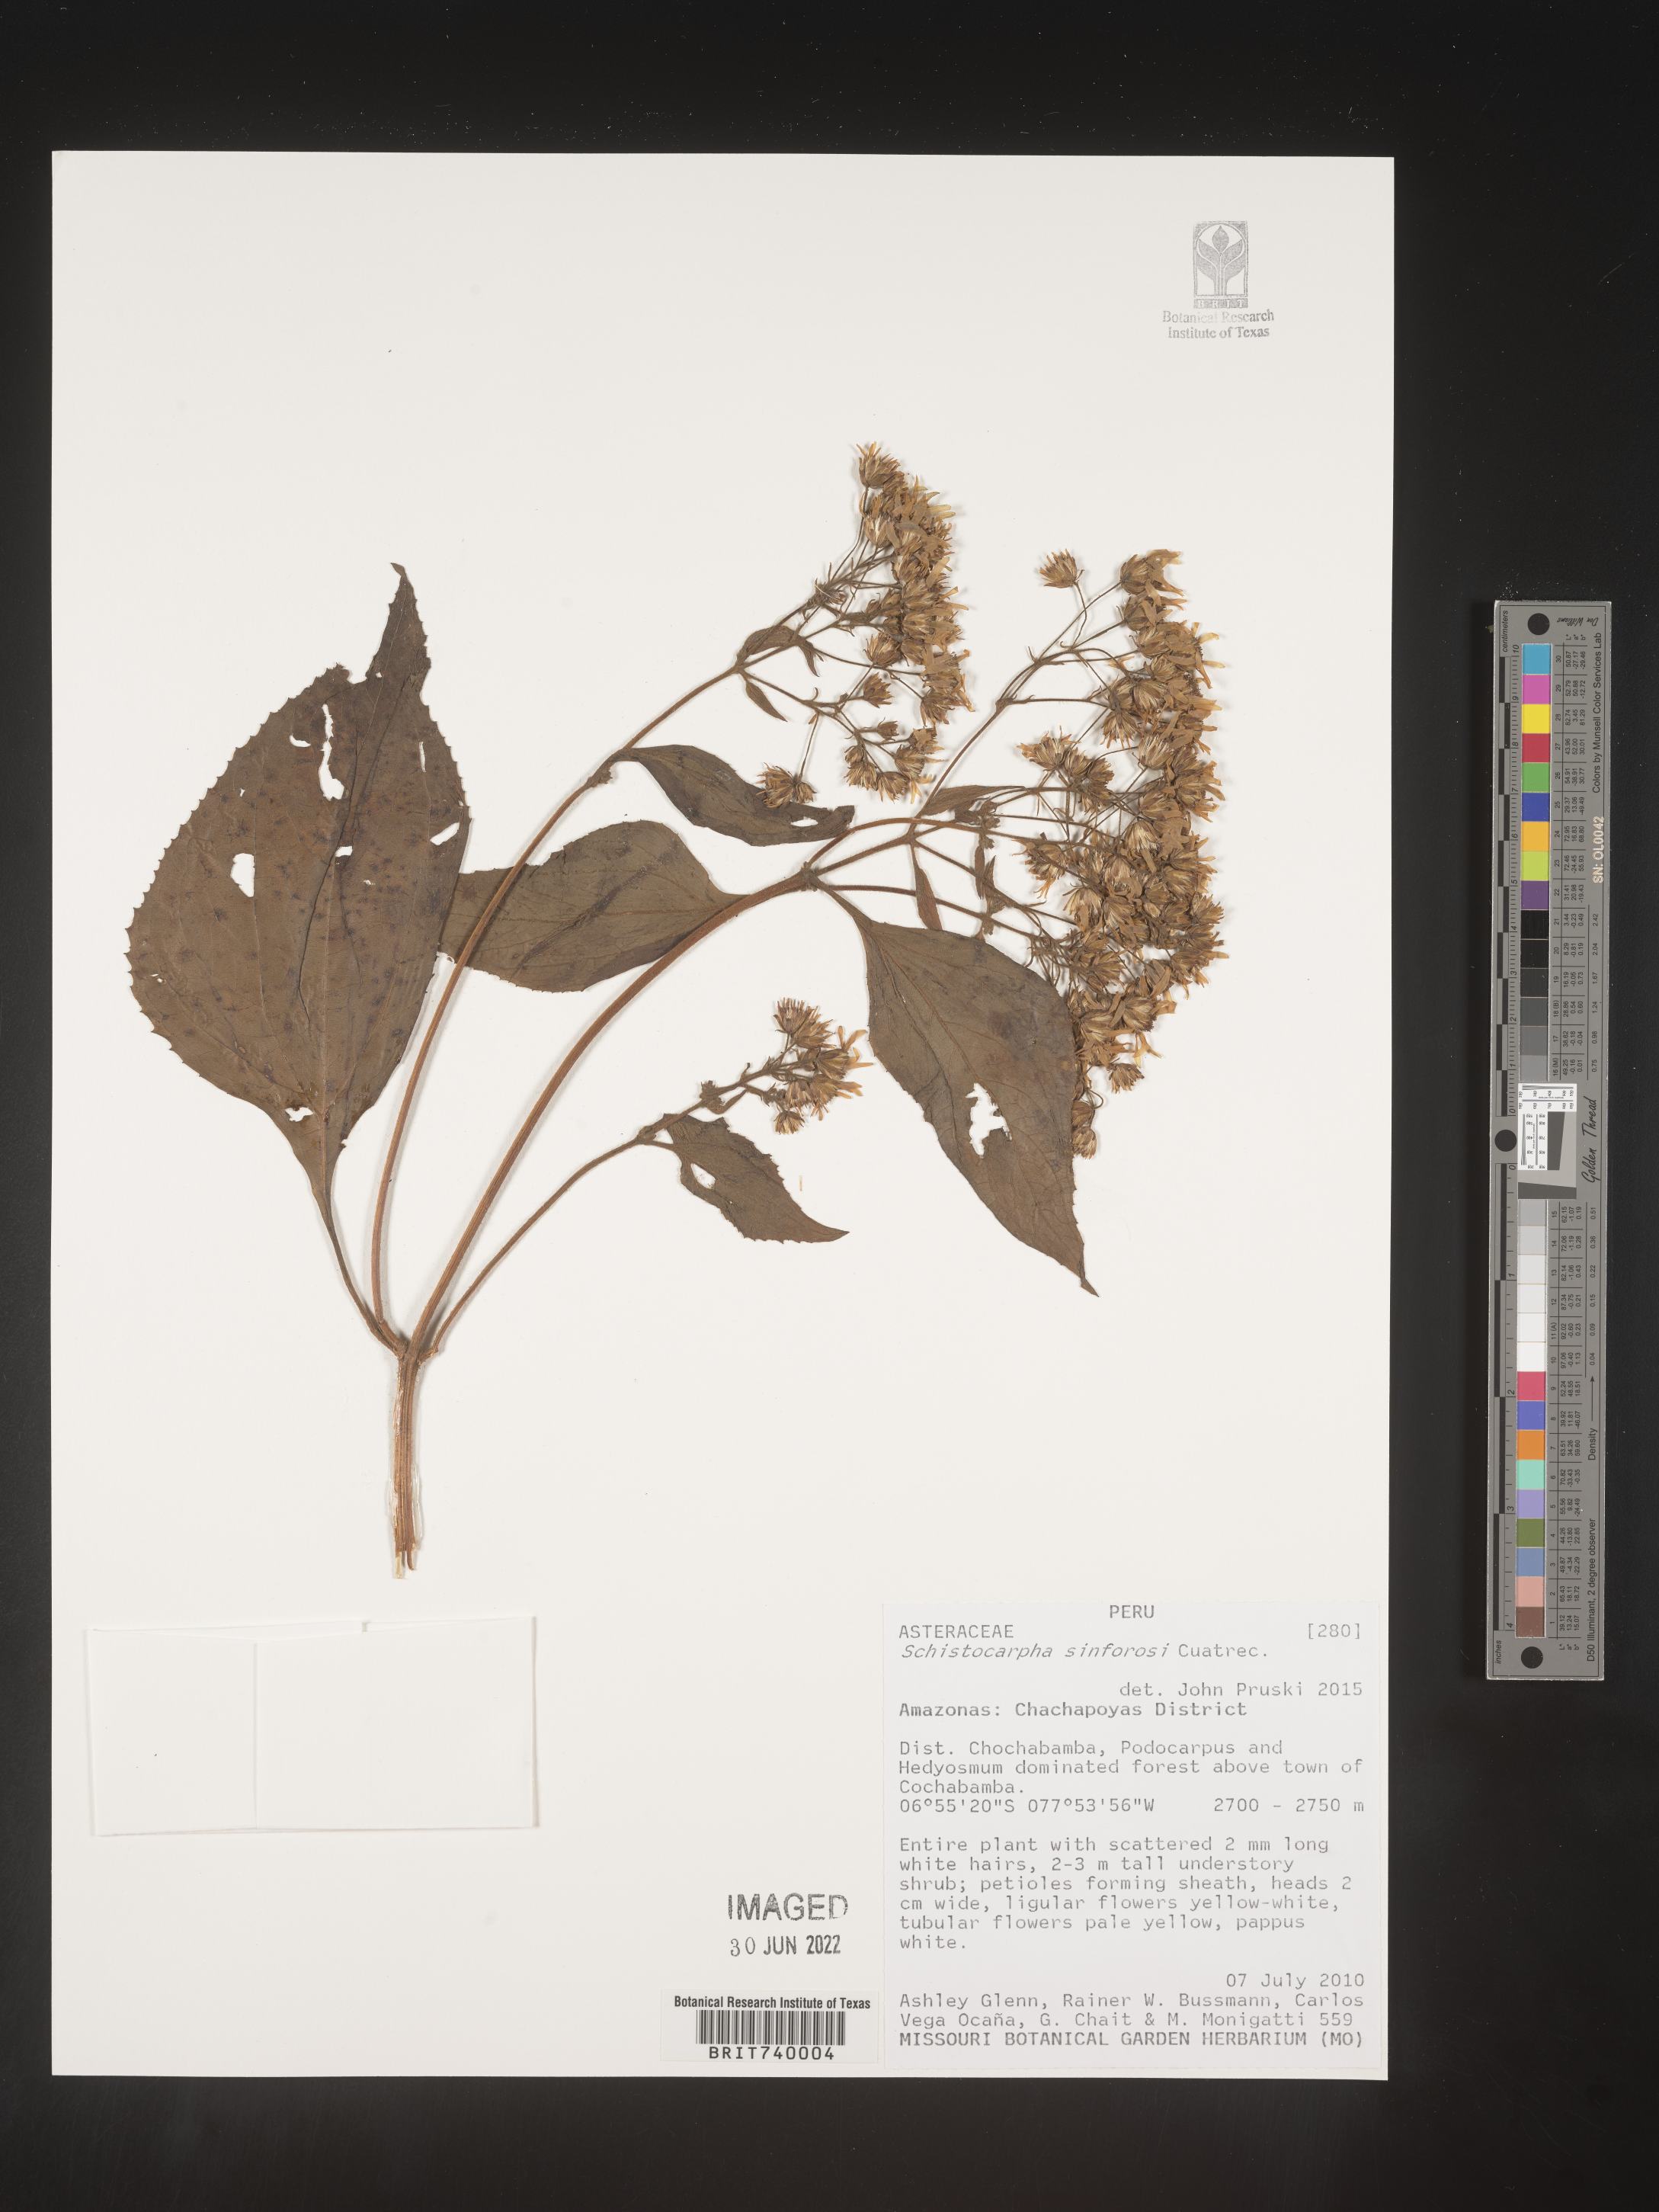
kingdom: Plantae
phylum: Tracheophyta
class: Magnoliopsida
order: Asterales
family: Asteraceae
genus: Schistocarpha
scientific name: Schistocarpha
